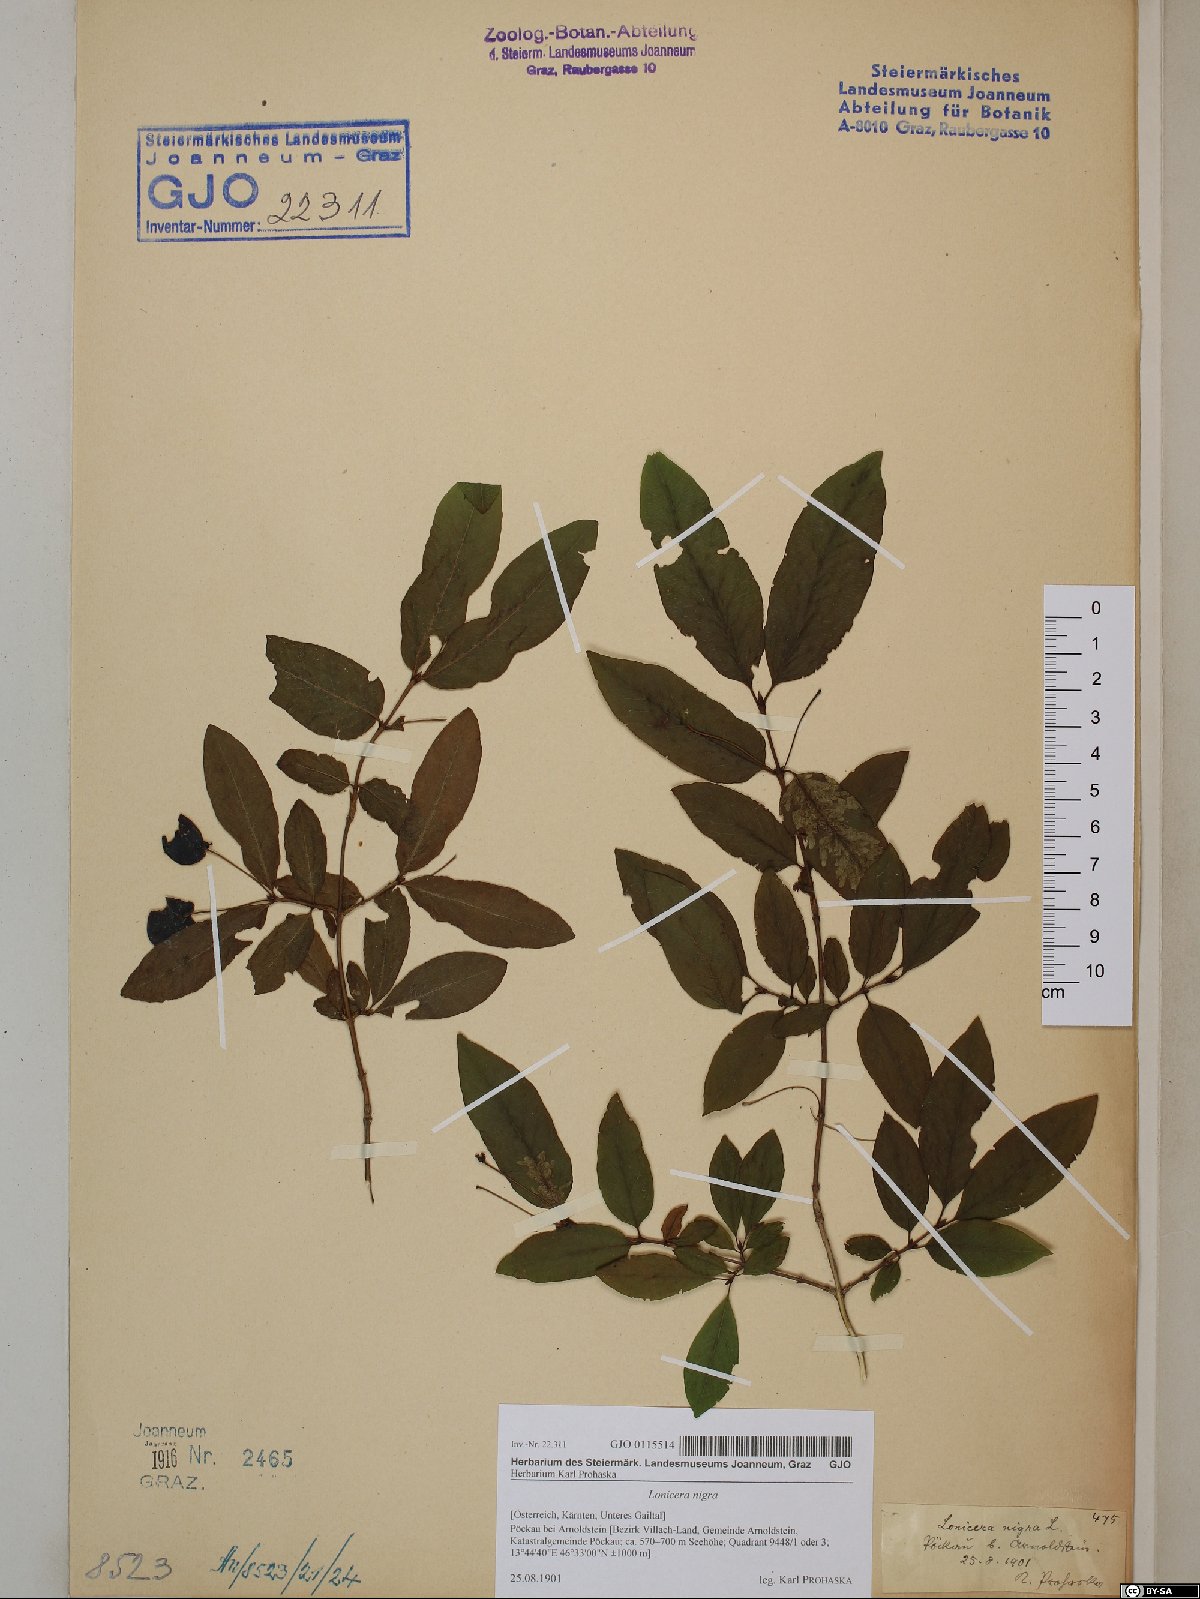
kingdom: Plantae
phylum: Tracheophyta
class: Magnoliopsida
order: Dipsacales
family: Caprifoliaceae
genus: Lonicera
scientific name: Lonicera nigra
